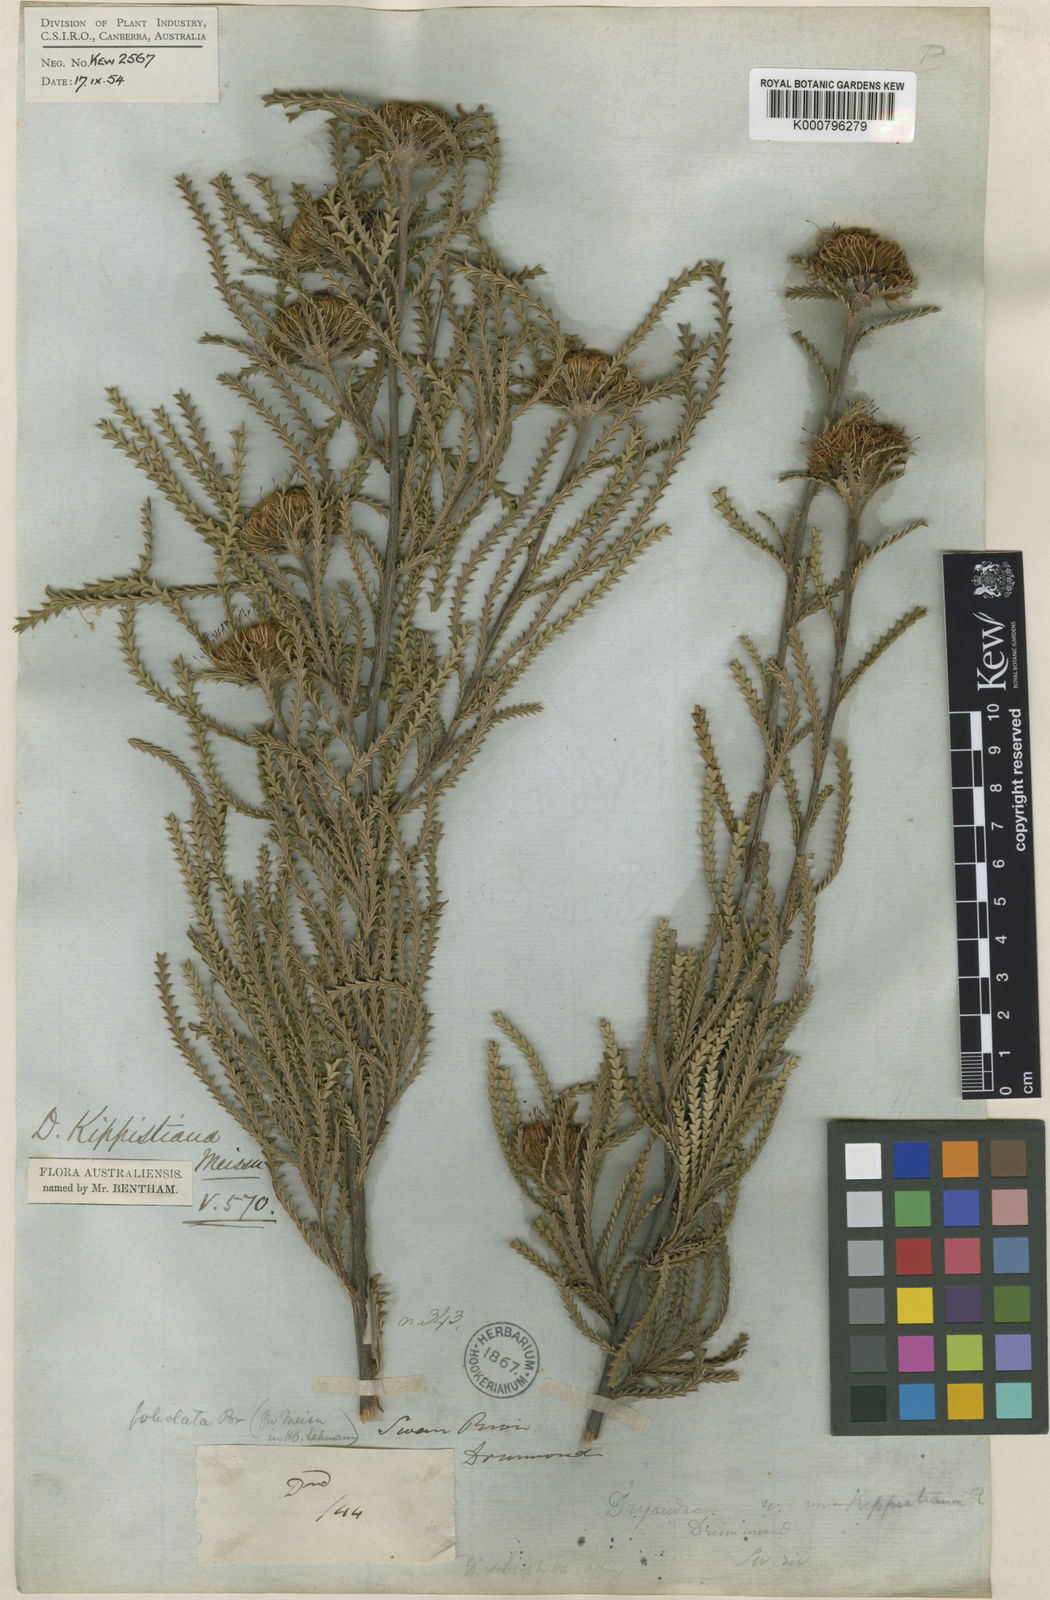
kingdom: Plantae
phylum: Tracheophyta
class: Magnoliopsida
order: Proteales
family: Proteaceae
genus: Banksia
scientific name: Banksia kippistiana
